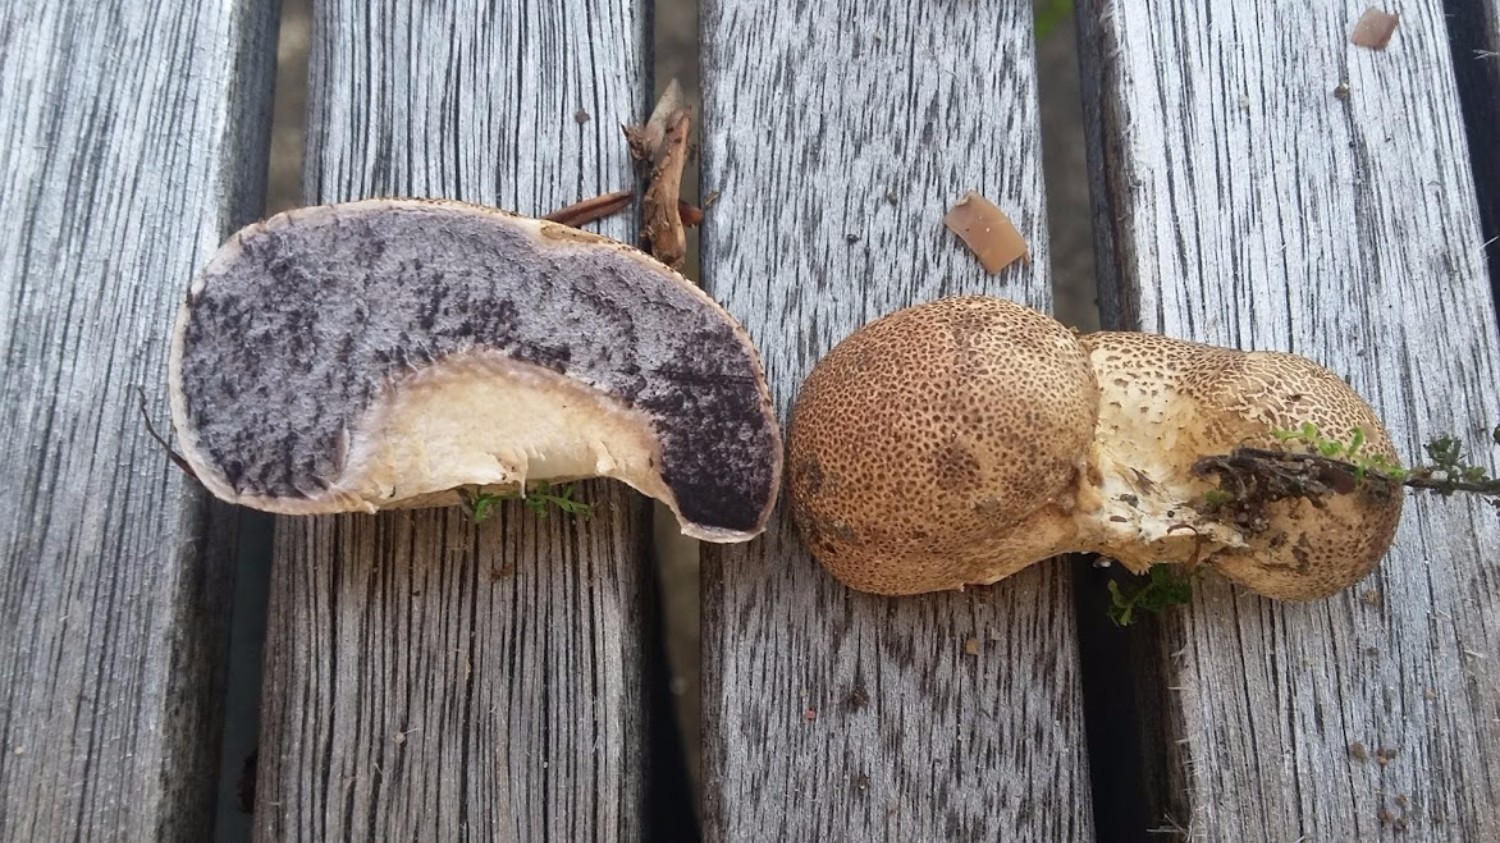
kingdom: Fungi
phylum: Basidiomycota
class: Agaricomycetes
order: Boletales
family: Sclerodermataceae
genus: Scleroderma
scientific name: Scleroderma
